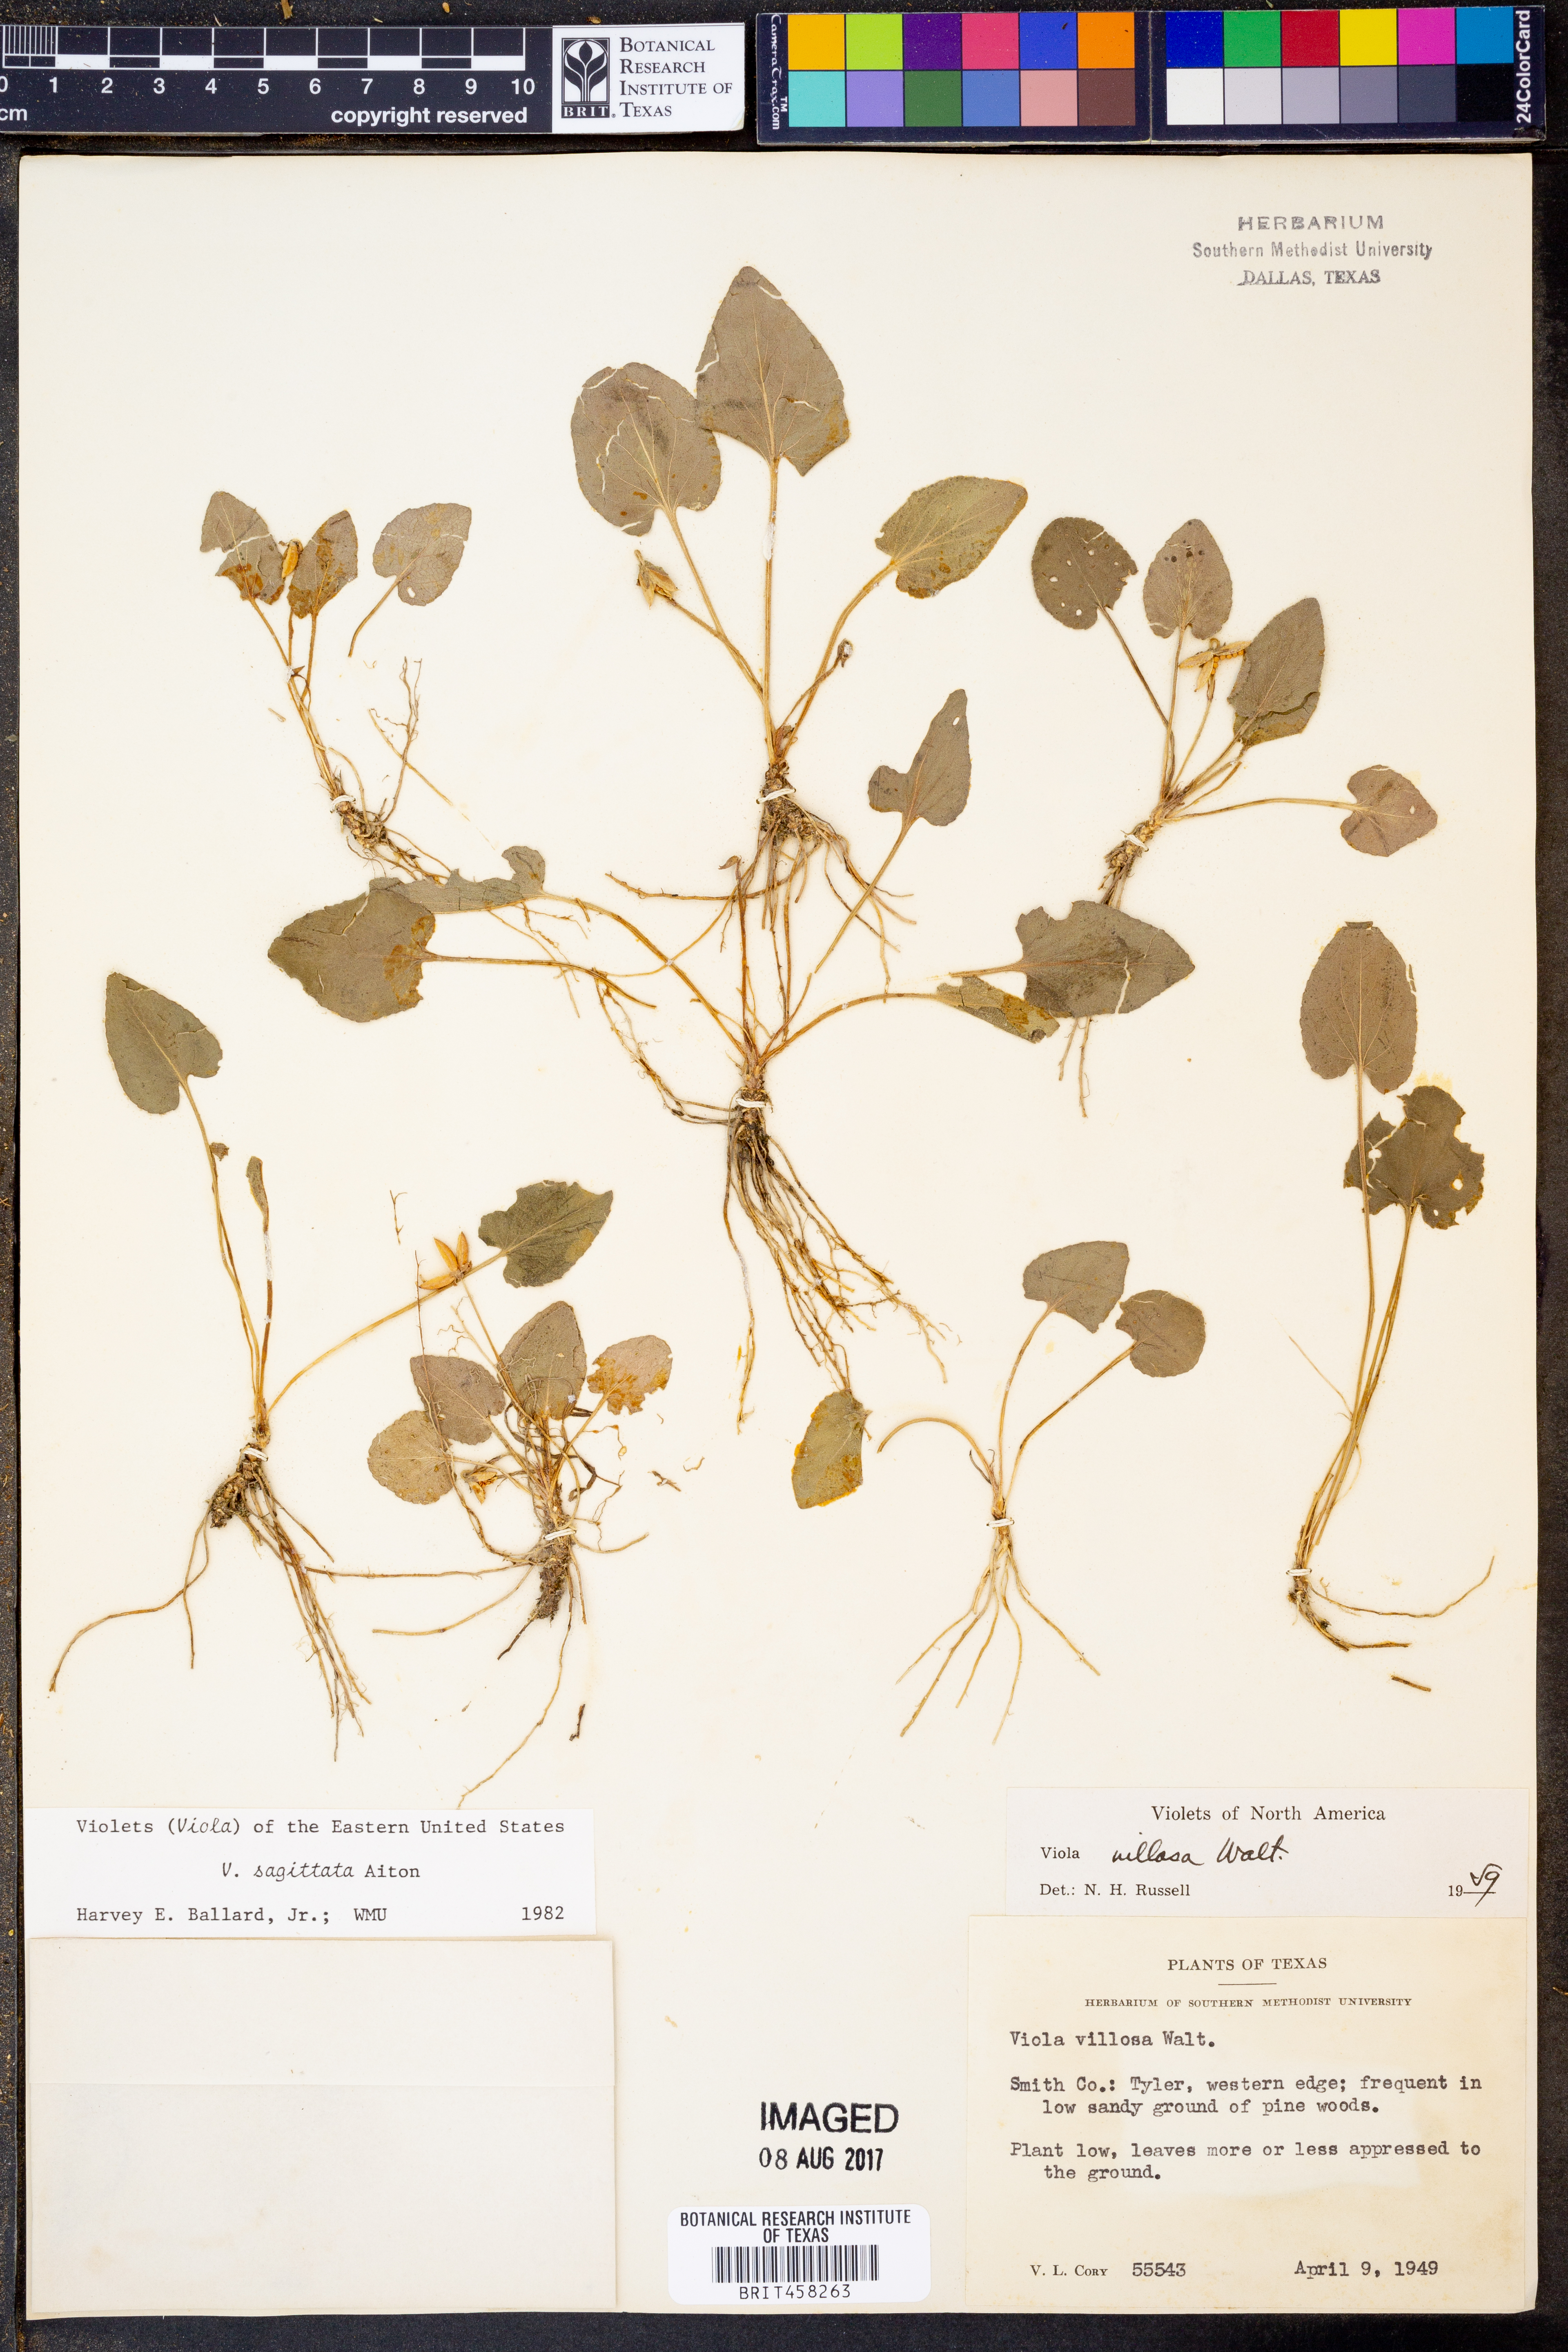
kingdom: Plantae
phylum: Tracheophyta
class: Magnoliopsida
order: Malpighiales
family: Violaceae
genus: Viola
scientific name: Viola villosa
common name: Carolina violet
